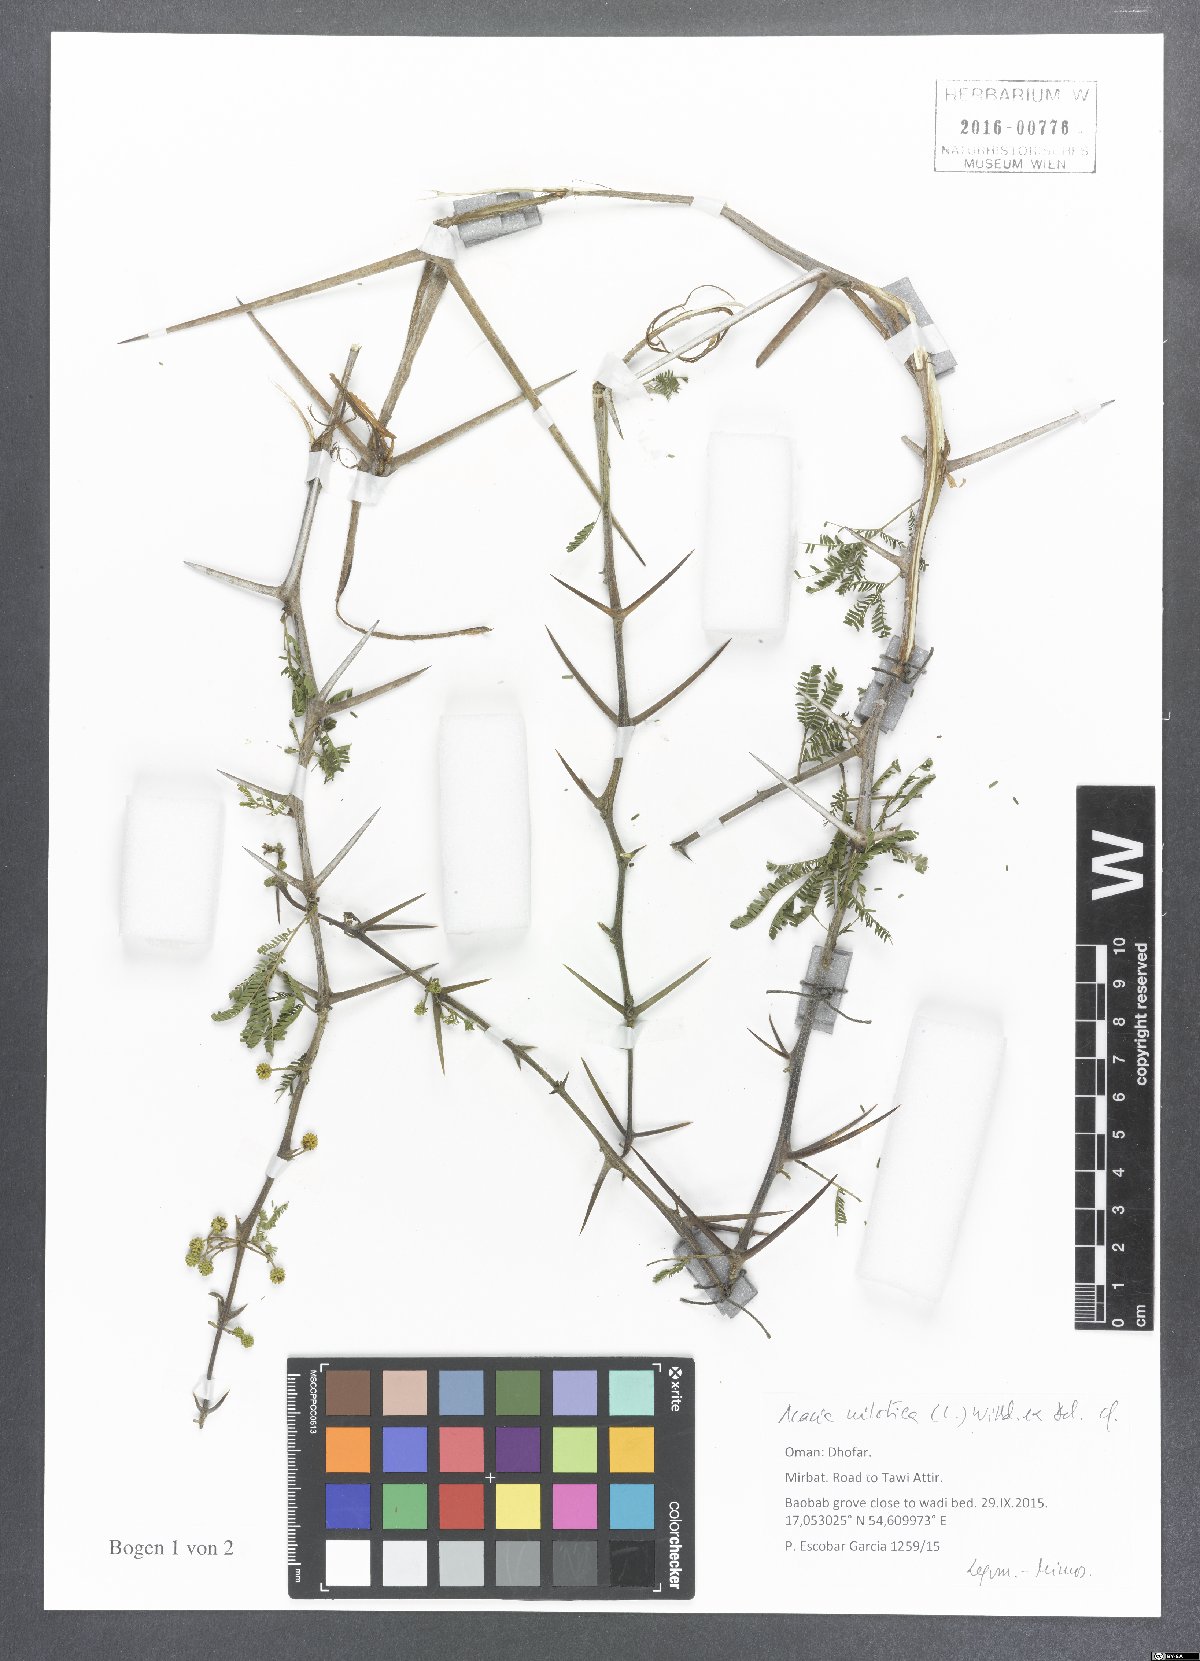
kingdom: Plantae
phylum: Tracheophyta
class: Magnoliopsida
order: Fabales
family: Fabaceae
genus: Vachellia
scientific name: Vachellia nilotica
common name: Arabic gumtree
